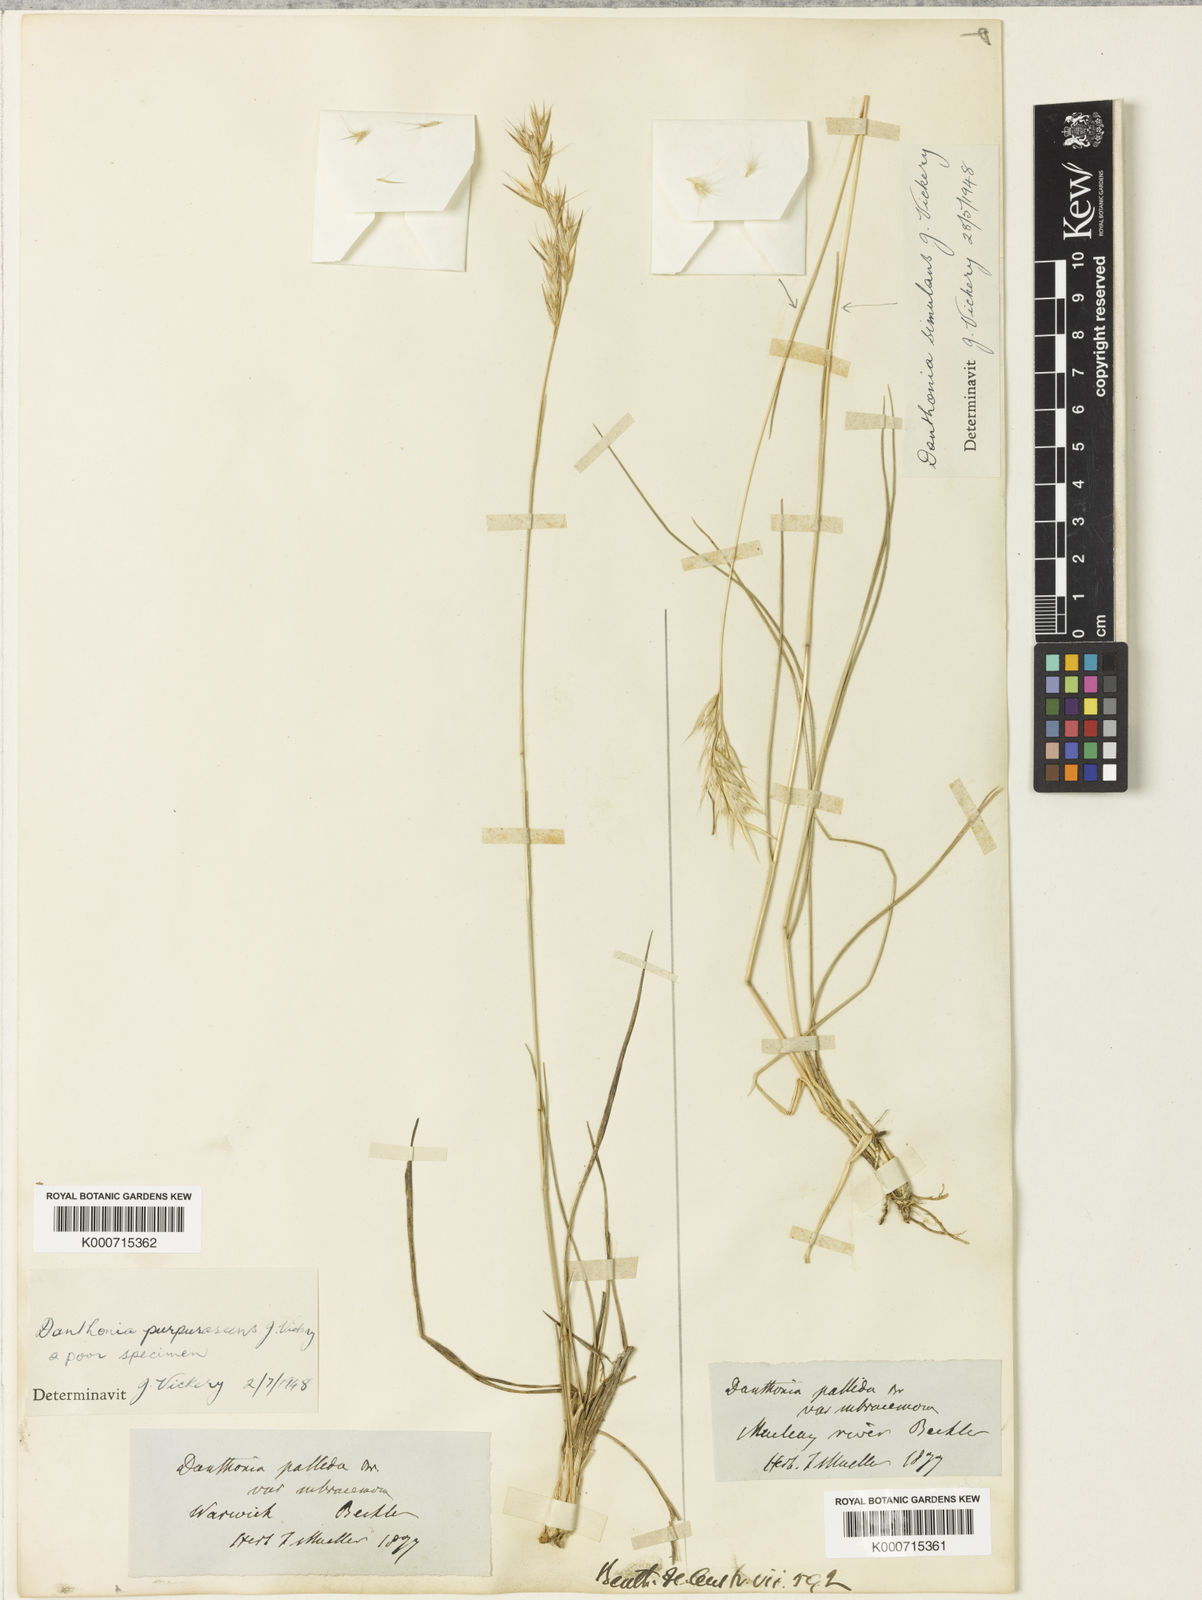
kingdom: Plantae
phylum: Tracheophyta
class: Liliopsida
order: Poales
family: Poaceae
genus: Rytidosperma
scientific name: Rytidosperma bipartitum
